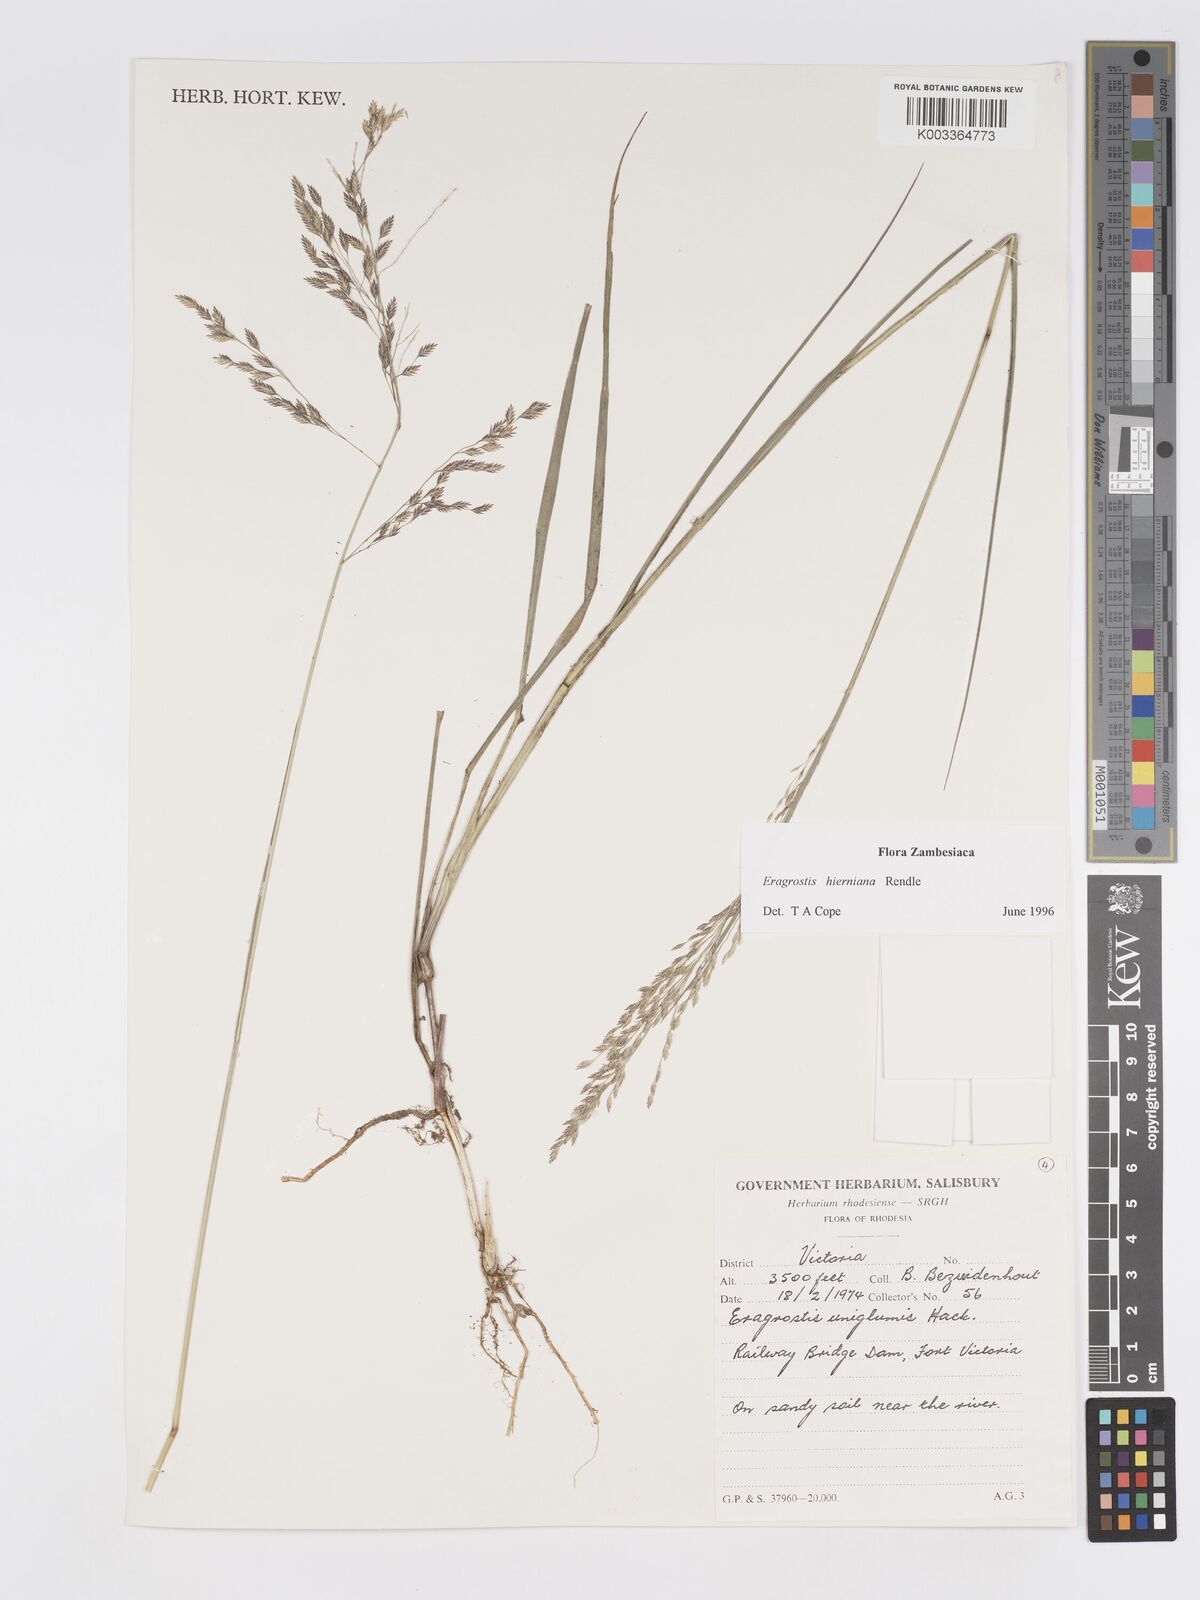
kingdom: Plantae
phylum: Tracheophyta
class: Liliopsida
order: Poales
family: Poaceae
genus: Eragrostis
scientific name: Eragrostis hierniana
